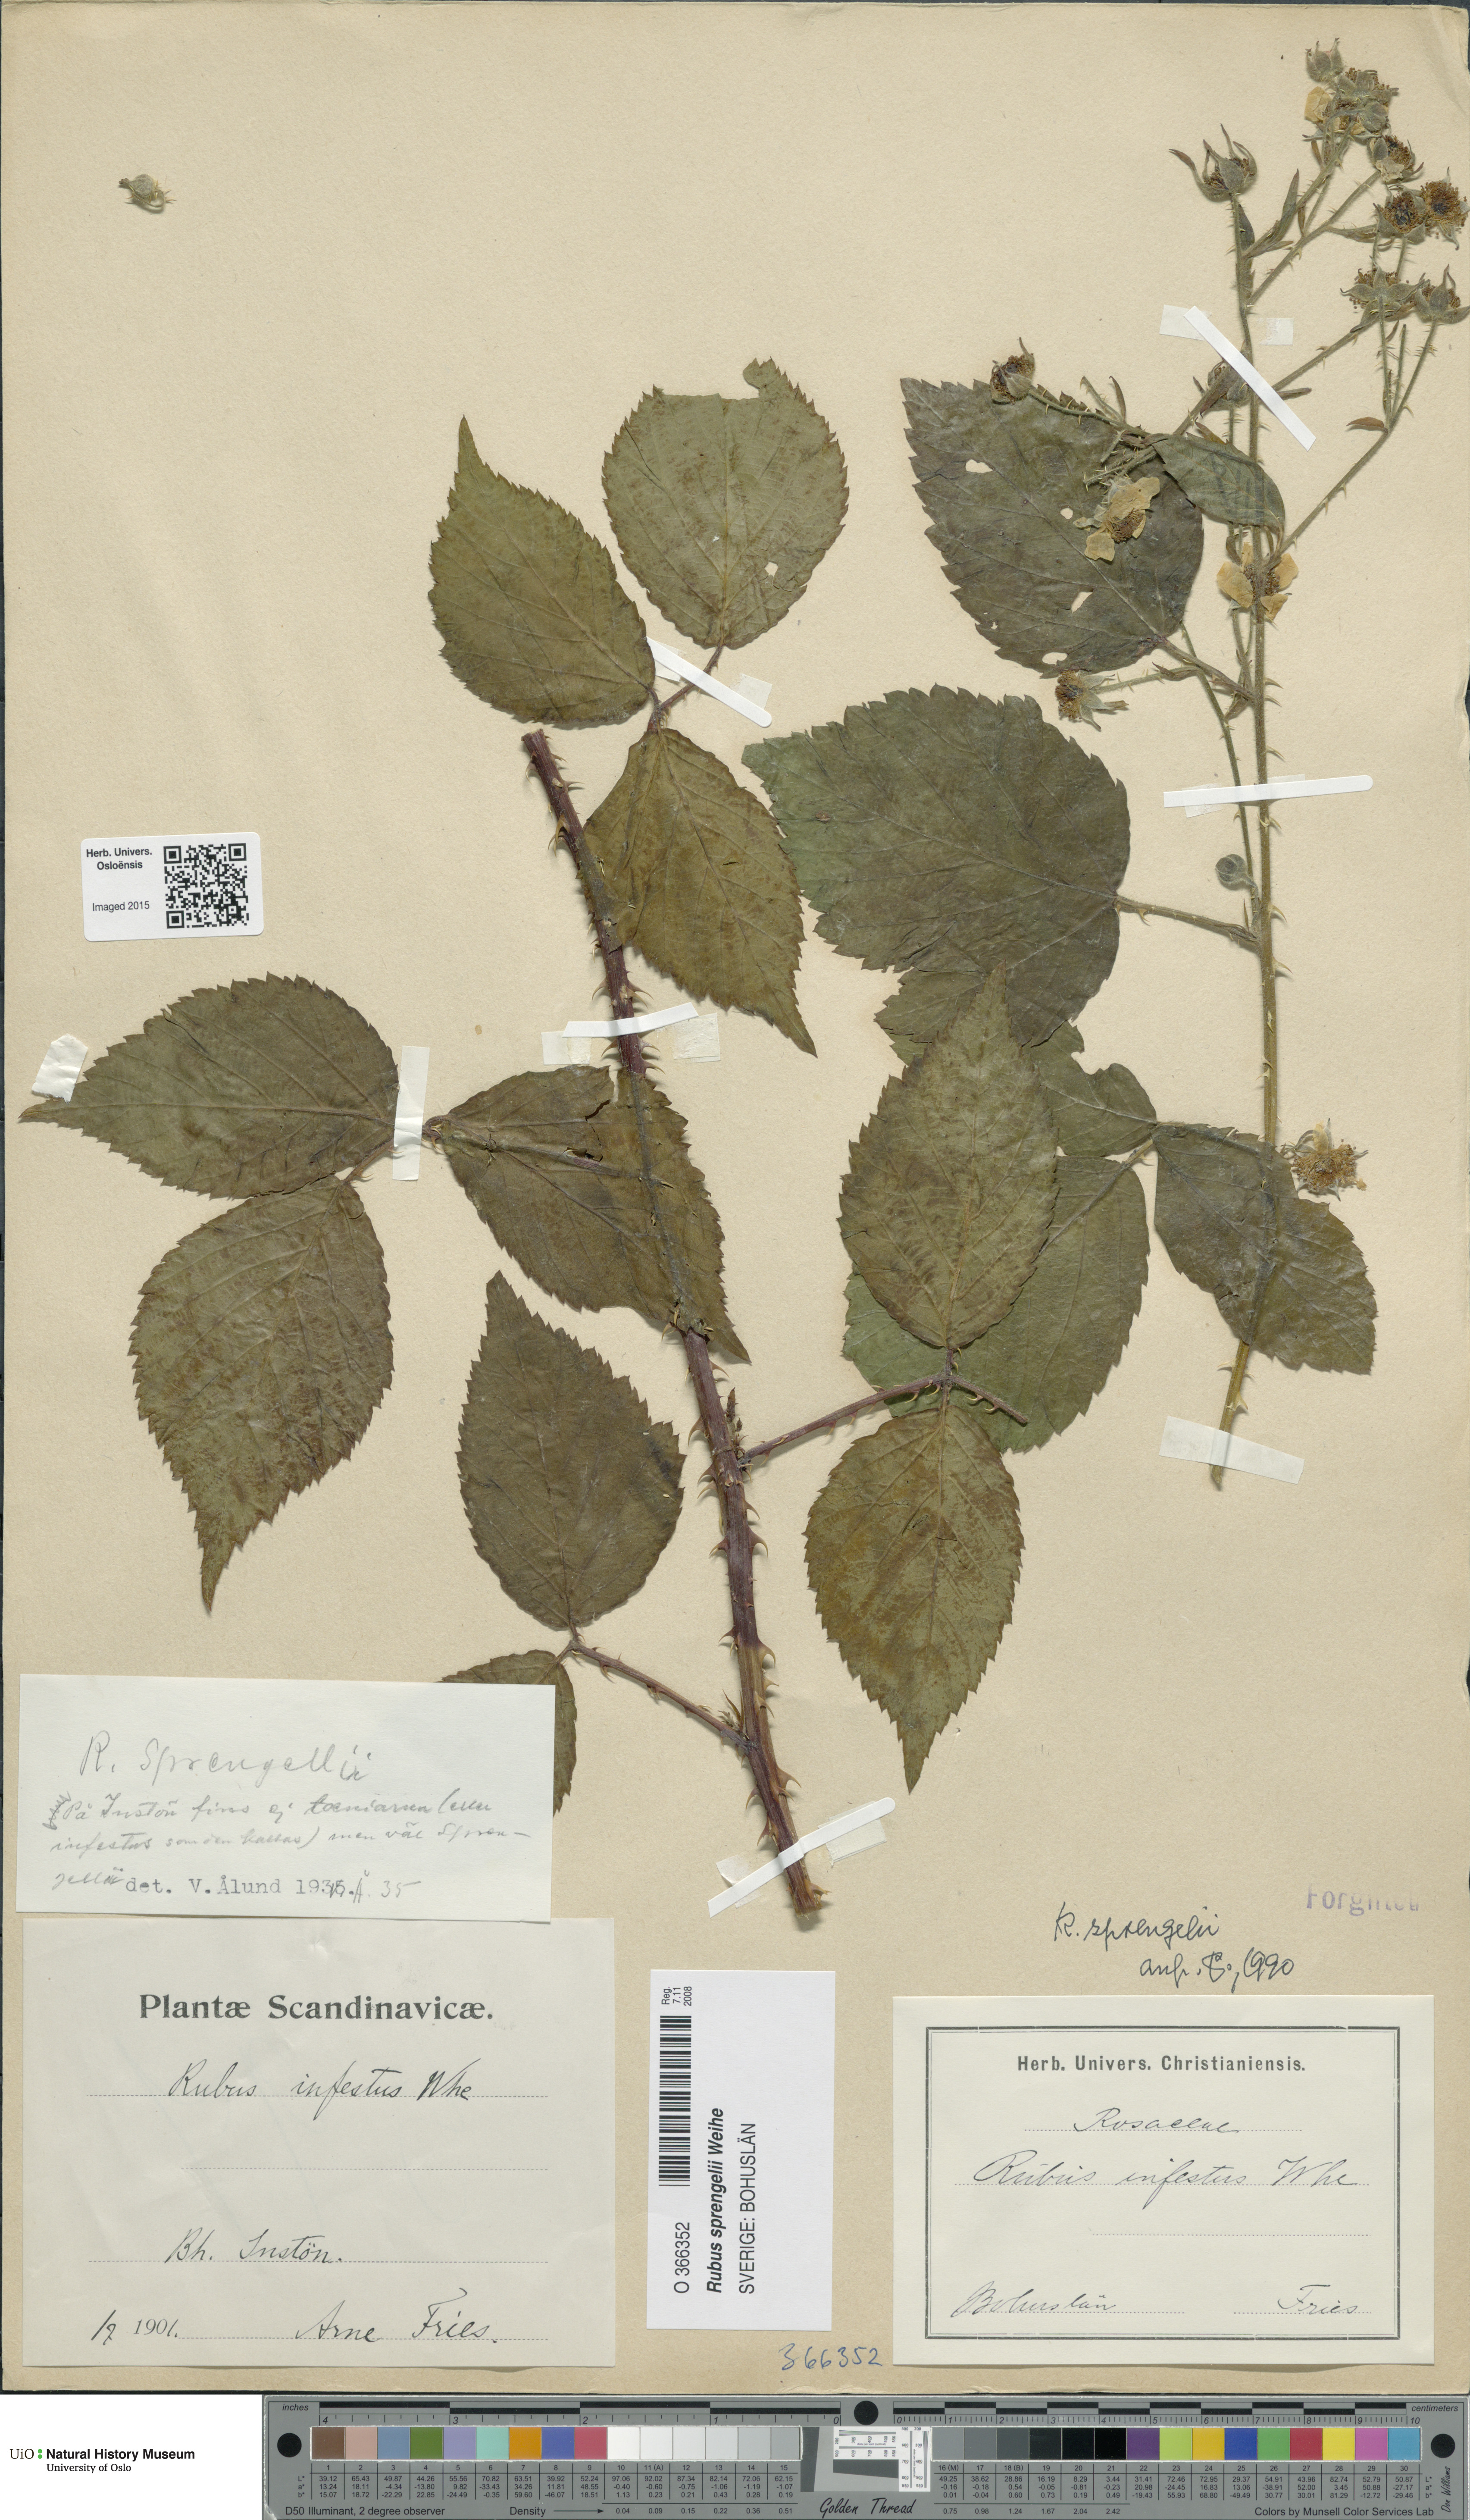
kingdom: Plantae
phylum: Tracheophyta
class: Magnoliopsida
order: Rosales
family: Rosaceae
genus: Rubus
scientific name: Rubus sprengelii
